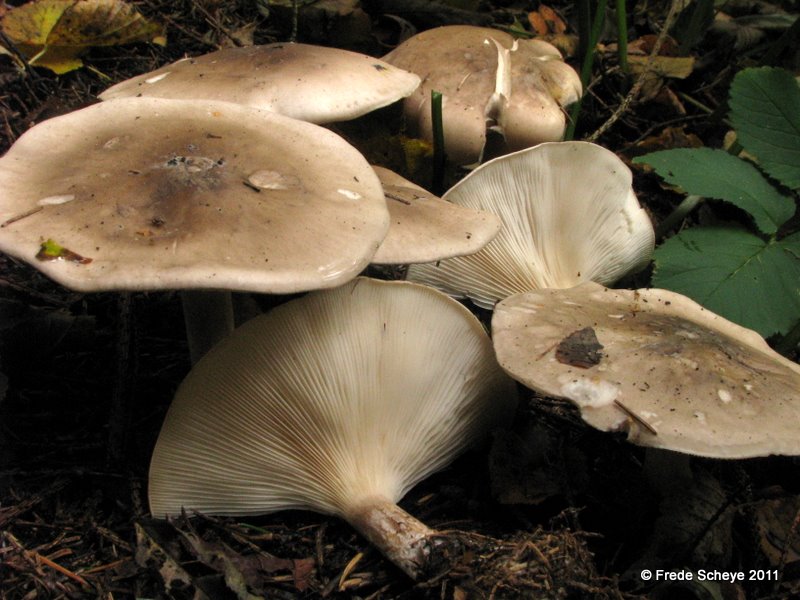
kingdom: Fungi
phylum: Basidiomycota
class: Agaricomycetes
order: Agaricales
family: Tricholomataceae
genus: Clitocybe
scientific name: Clitocybe nebularis
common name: tåge-tragthat
